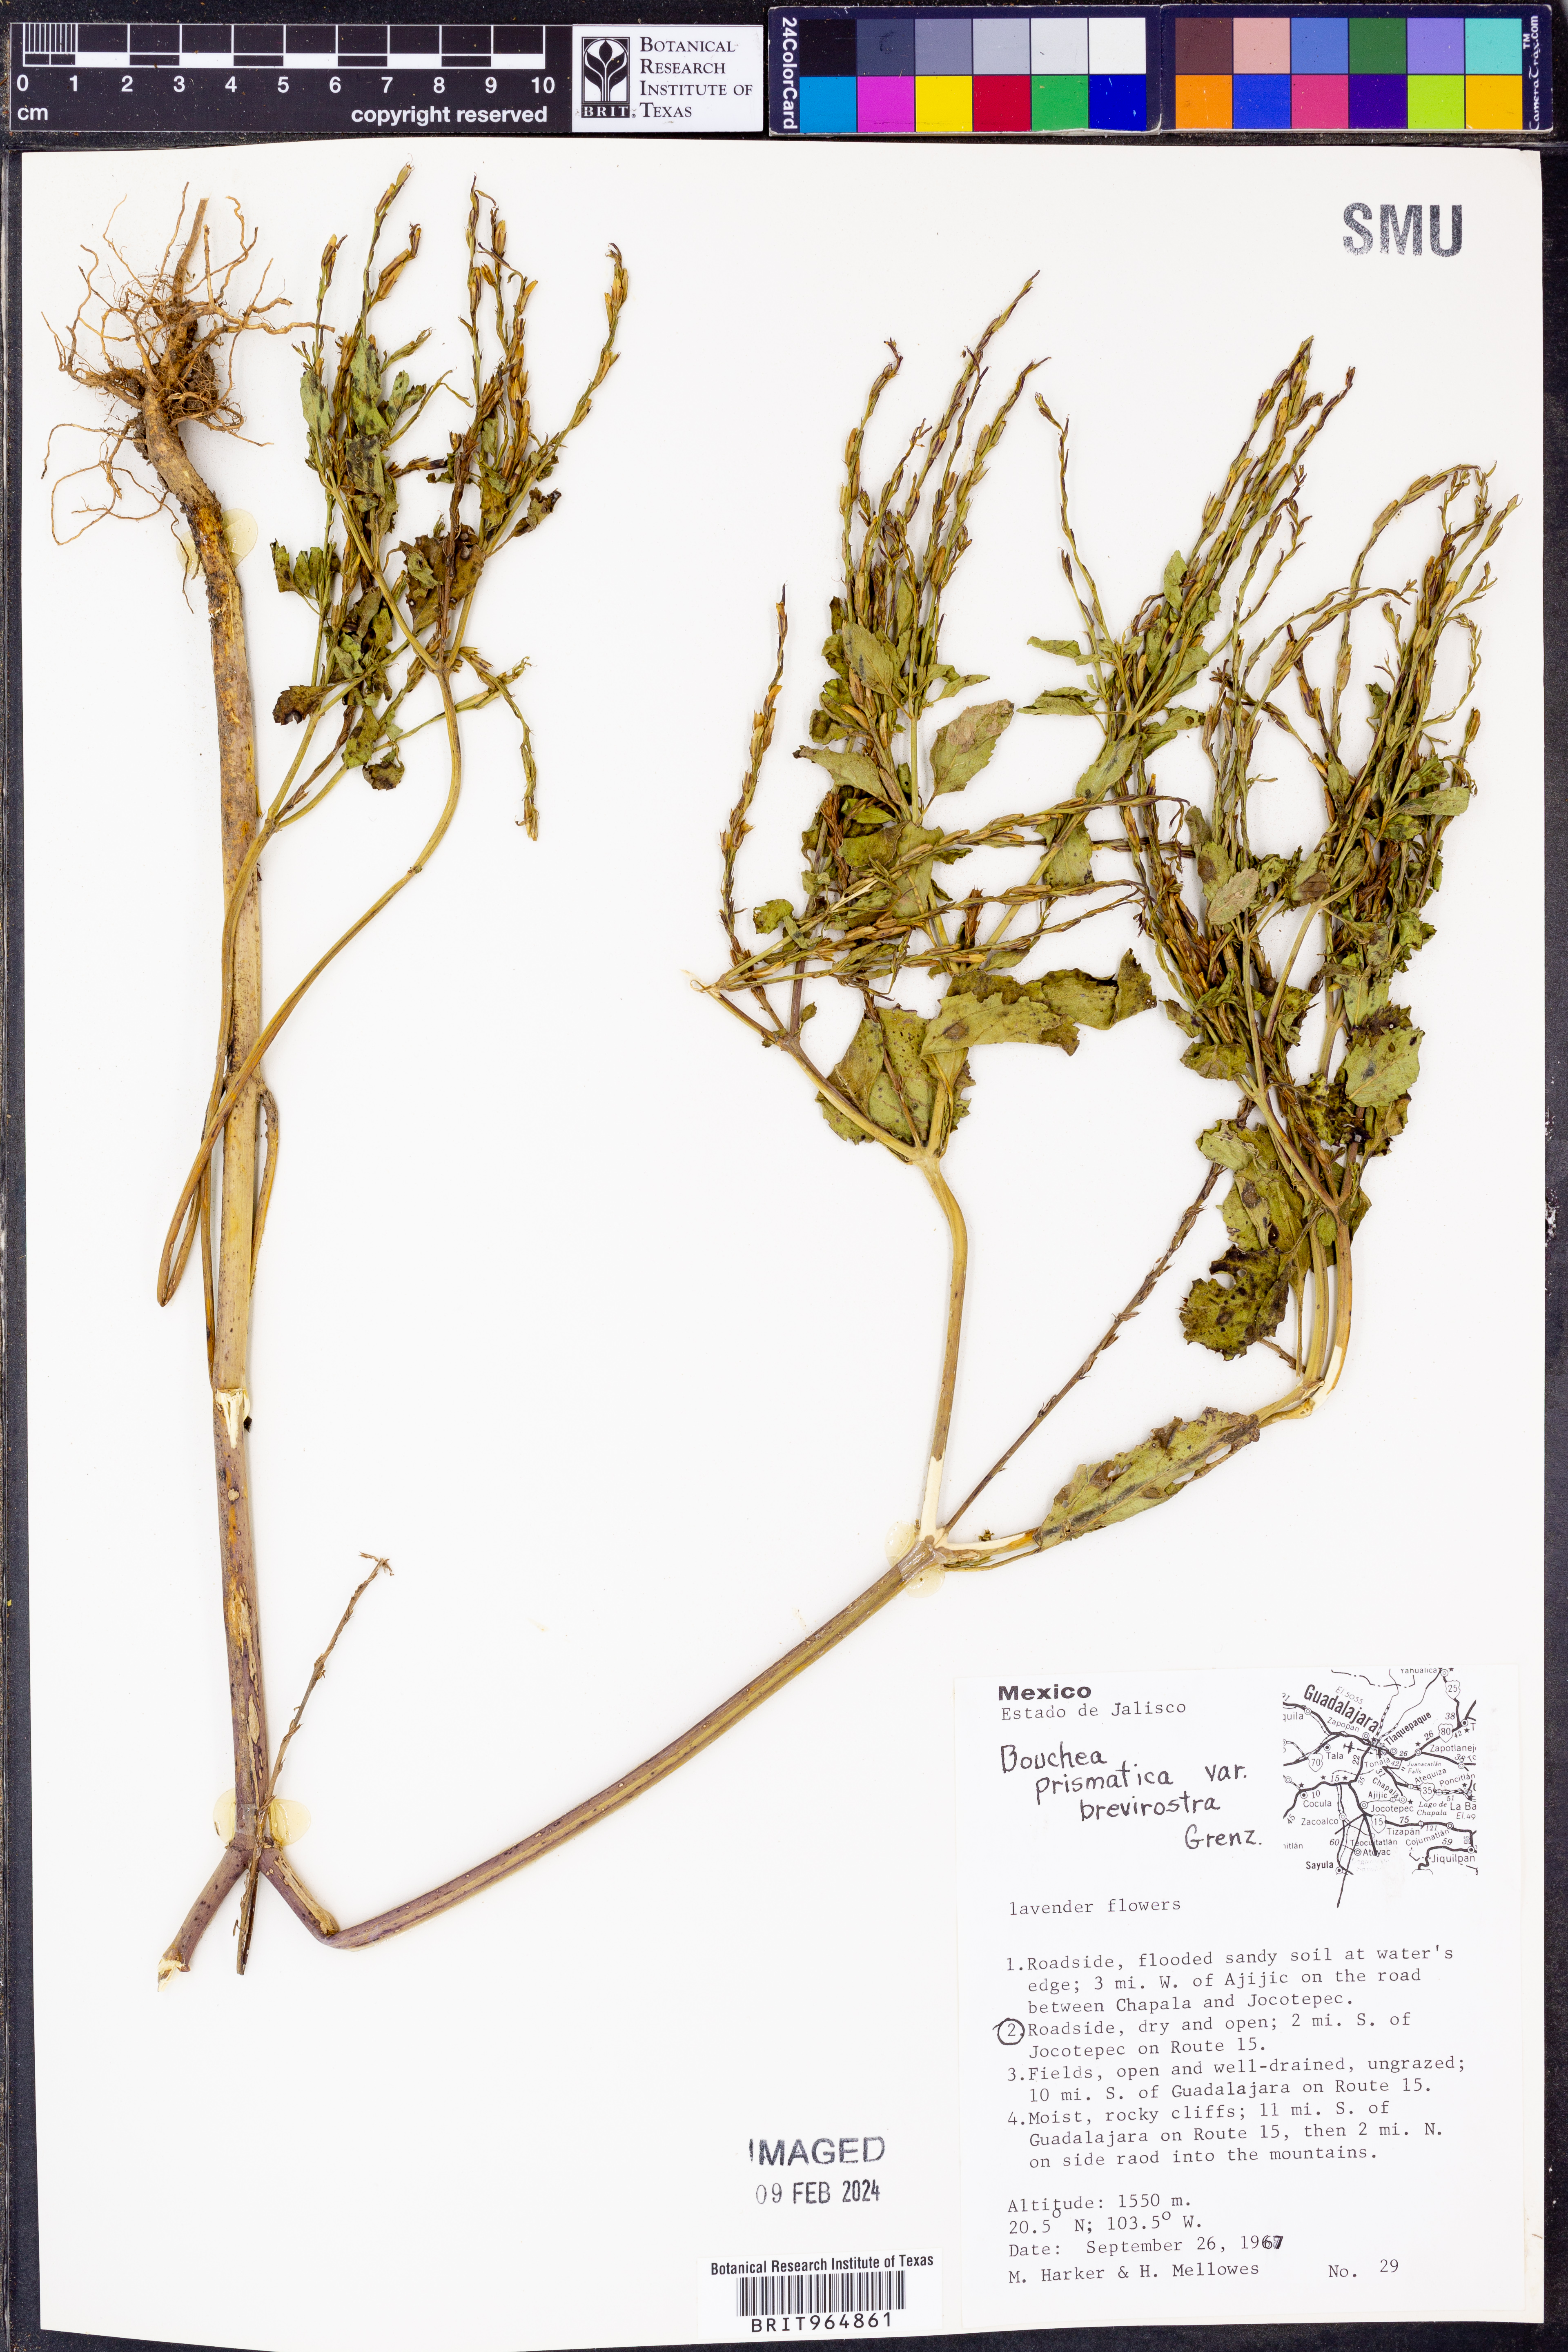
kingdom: Plantae
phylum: Tracheophyta
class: Magnoliopsida
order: Lamiales
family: Verbenaceae
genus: Bouchea
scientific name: Bouchea
